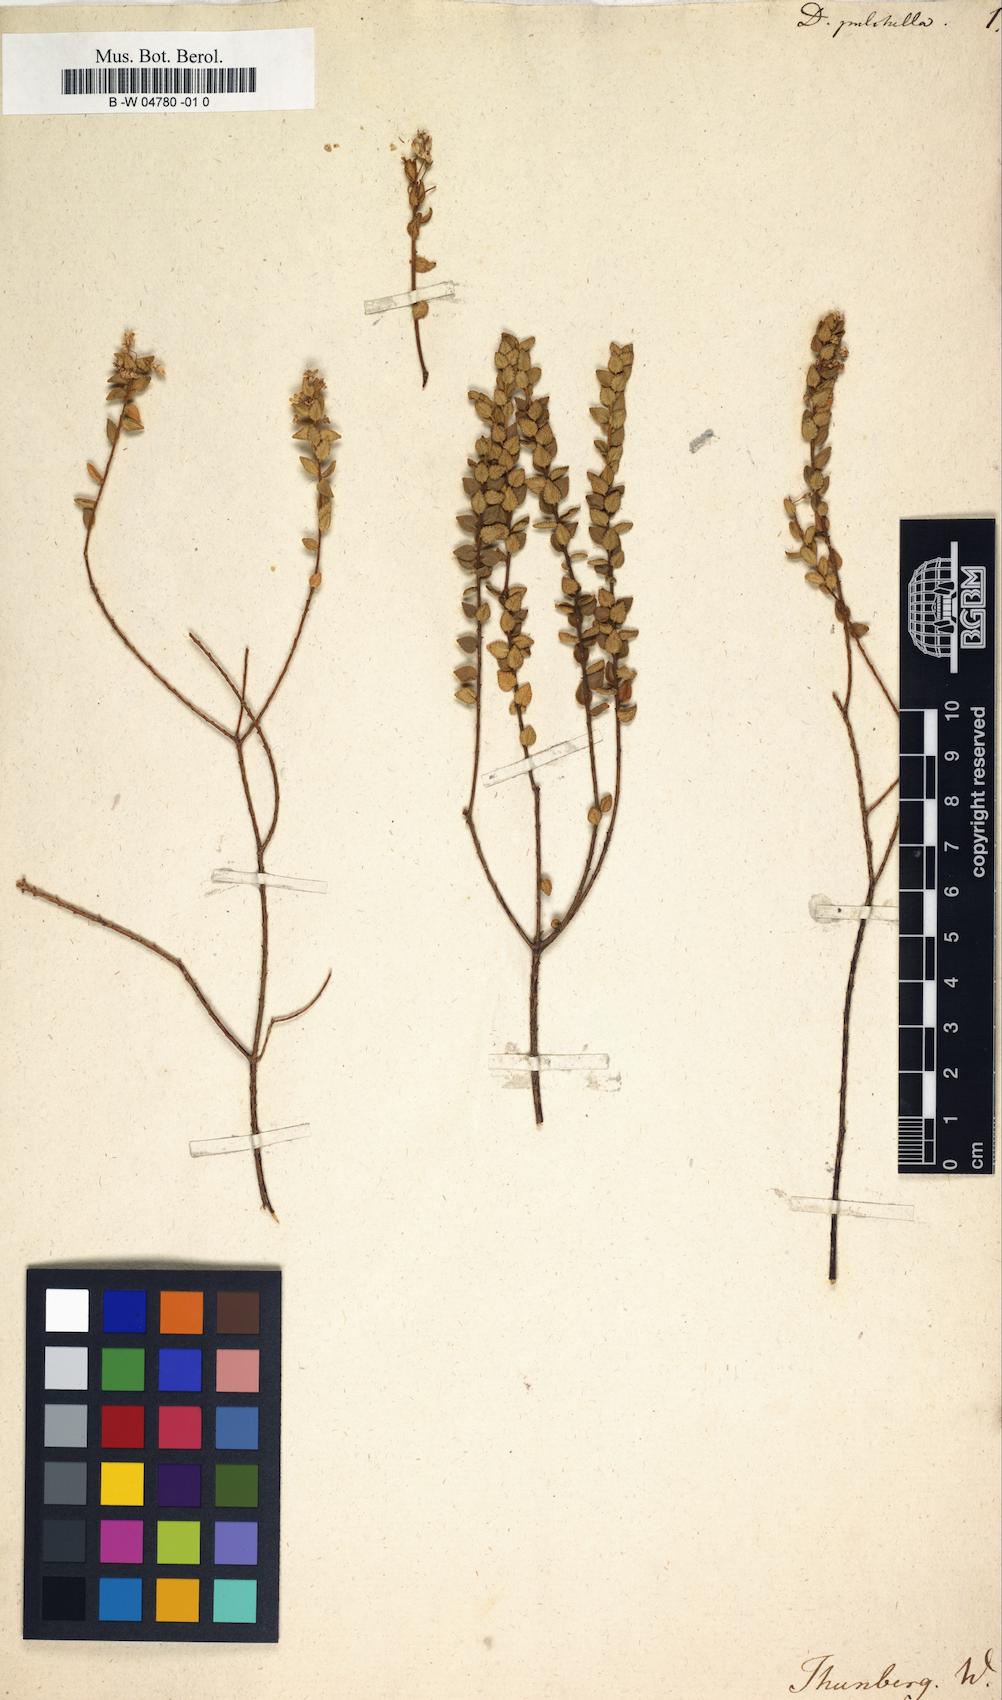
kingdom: Plantae
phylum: Tracheophyta
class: Magnoliopsida
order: Sapindales
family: Rutaceae
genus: Agathosma
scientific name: Agathosma pulchella
